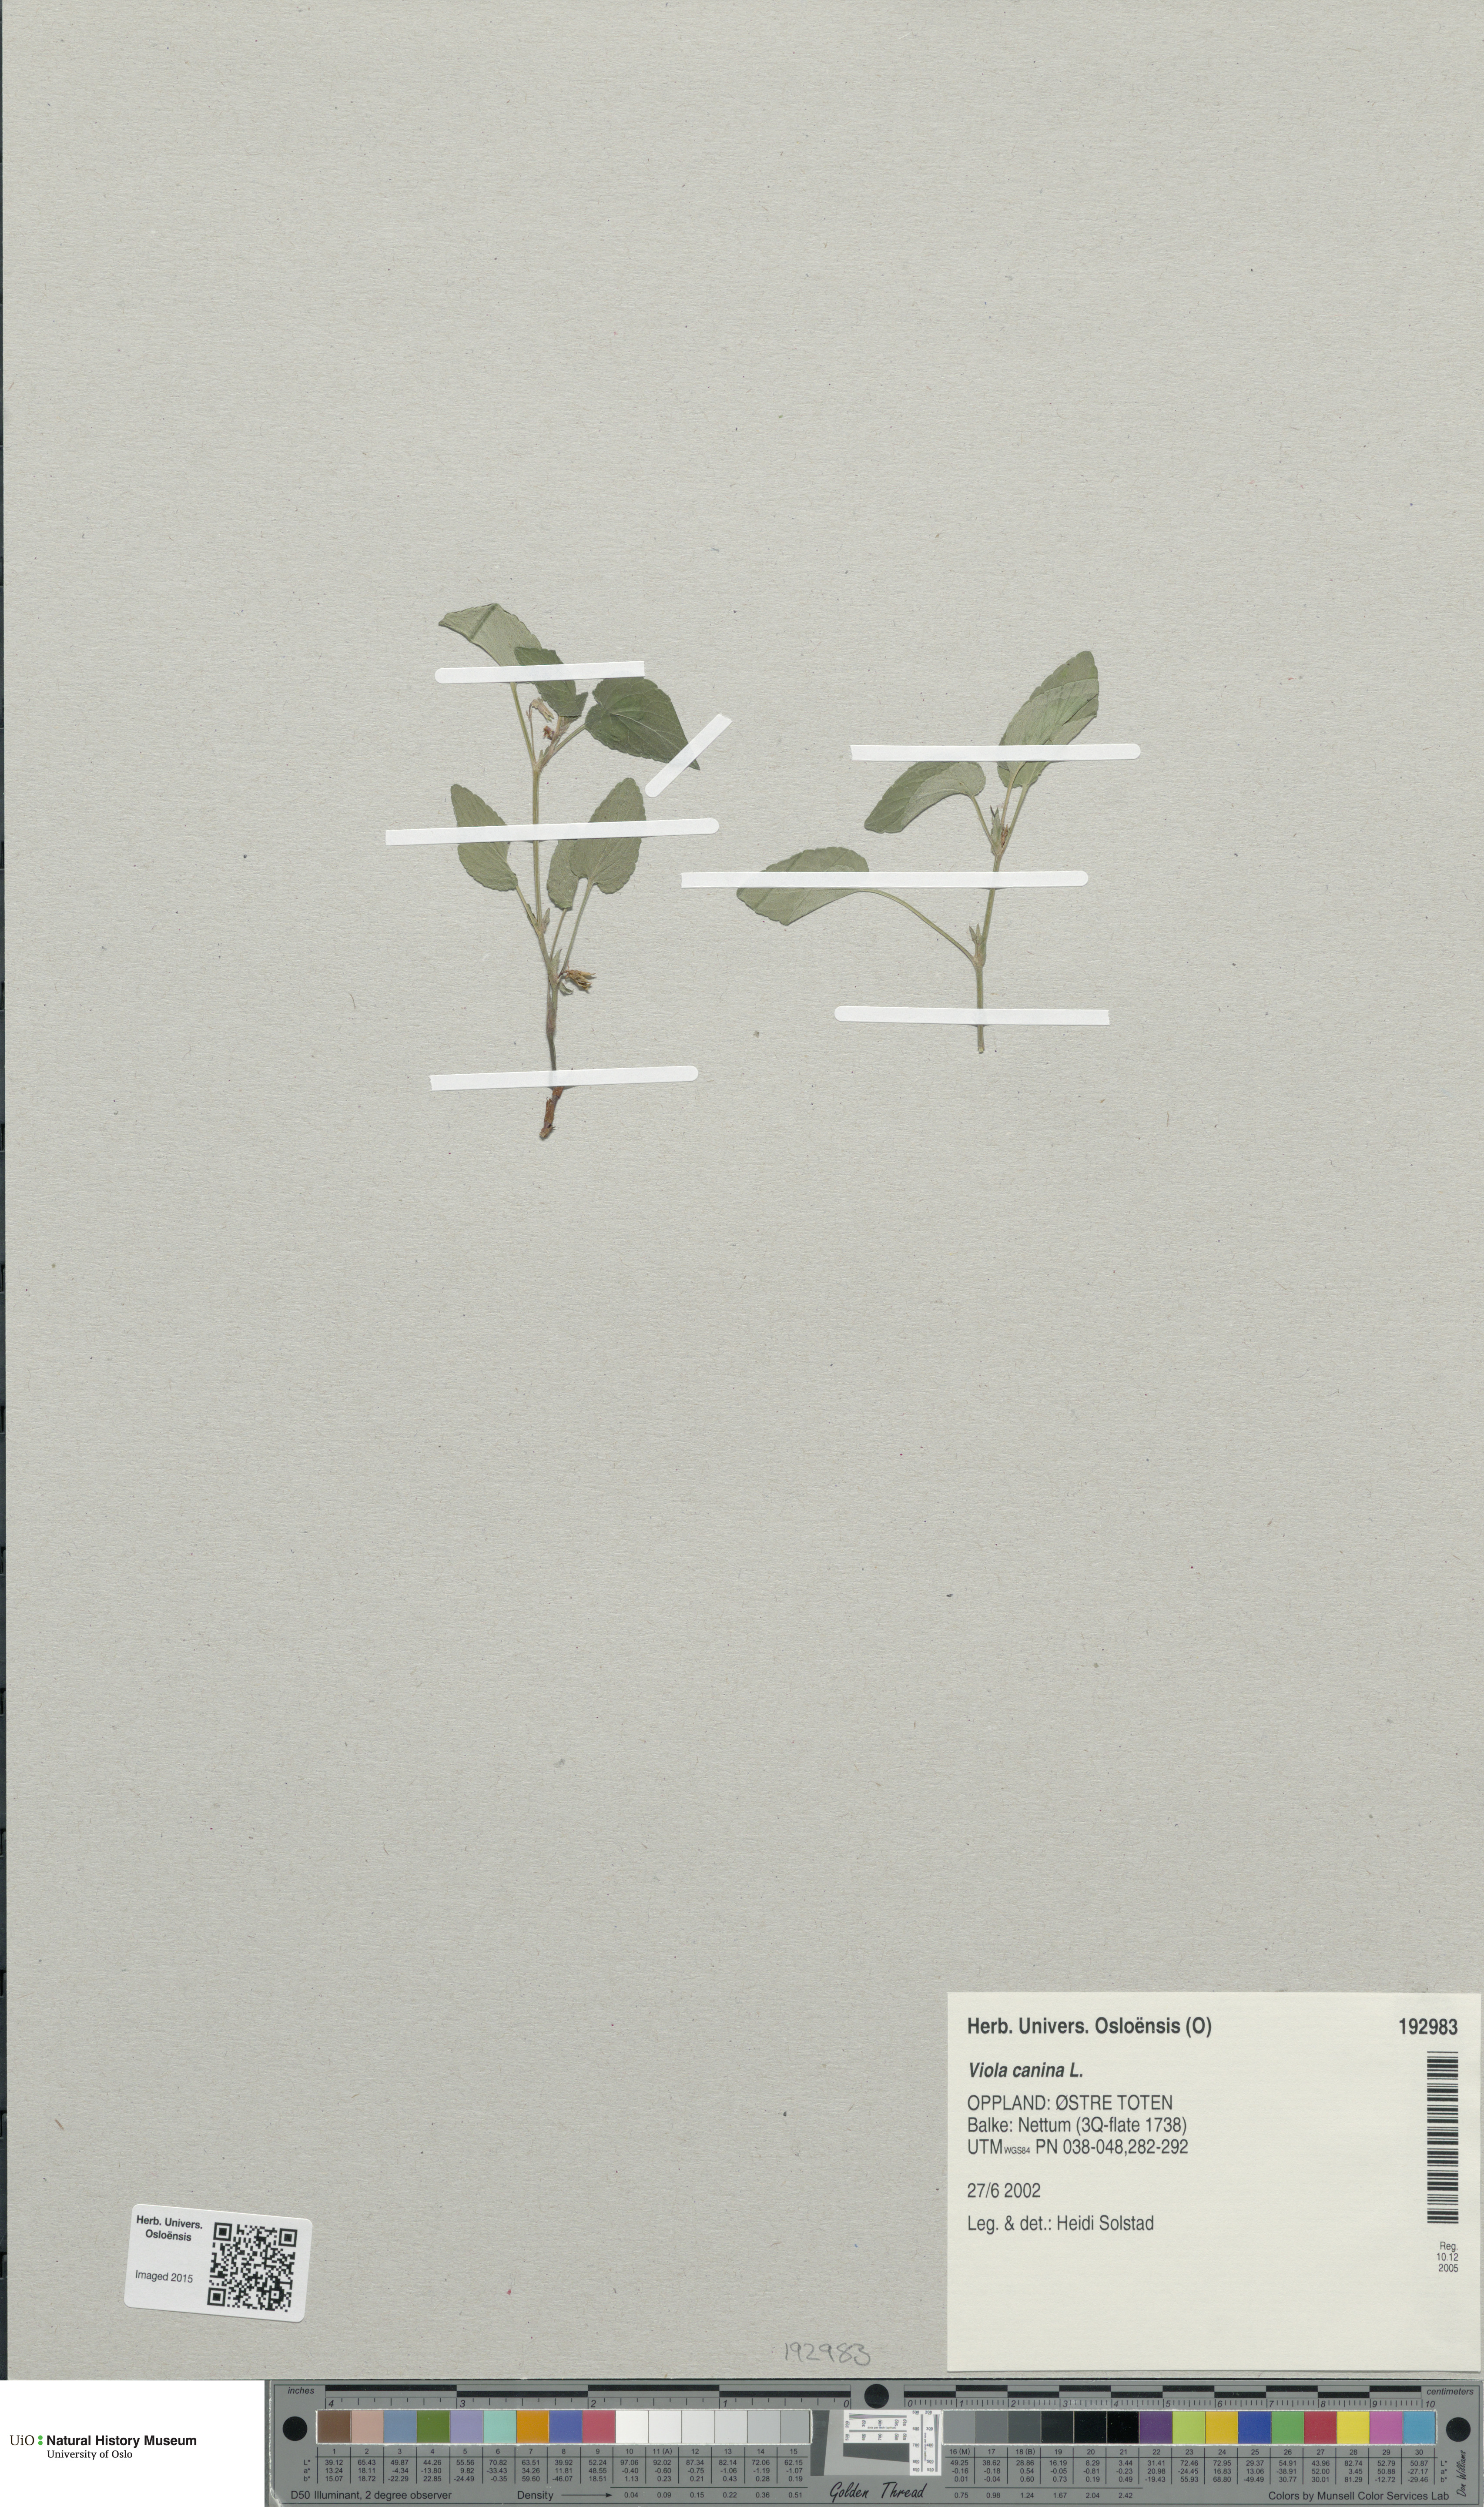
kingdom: Plantae
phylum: Tracheophyta
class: Magnoliopsida
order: Malpighiales
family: Violaceae
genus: Viola
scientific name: Viola canina
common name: Heath dog-violet
